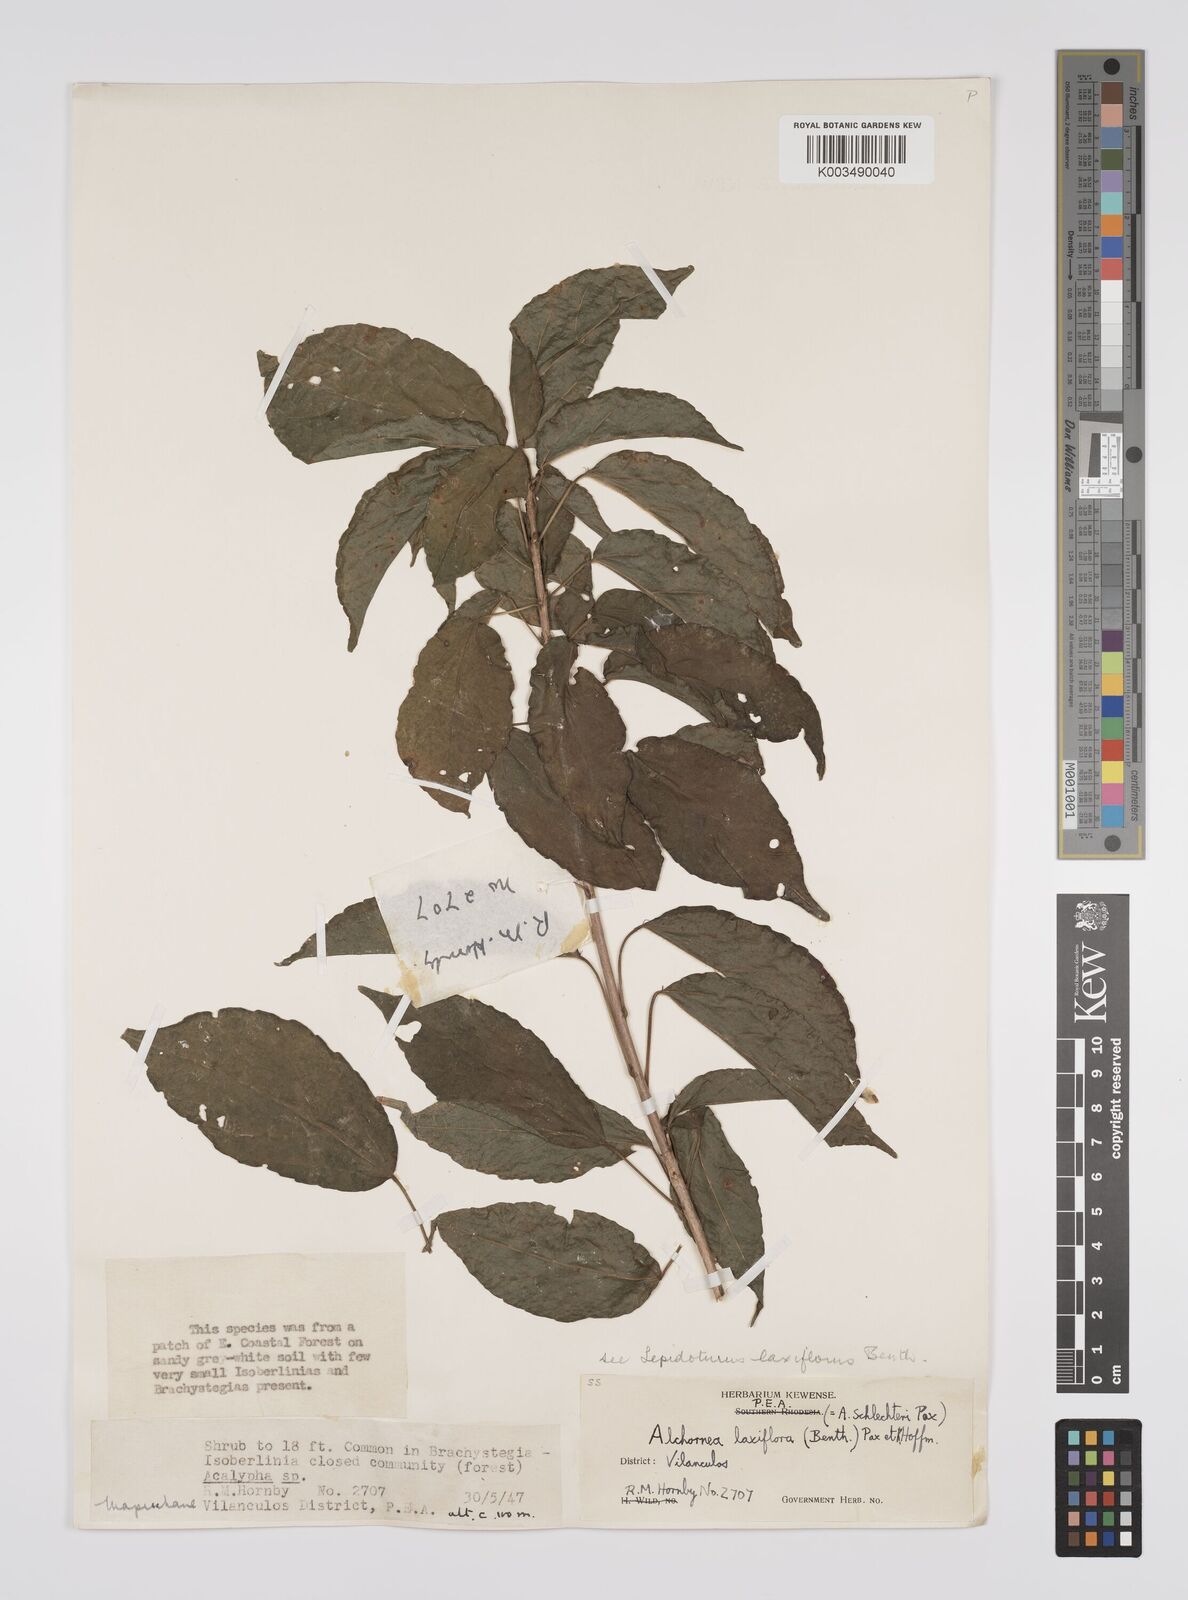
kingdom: Plantae
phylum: Tracheophyta
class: Magnoliopsida
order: Malpighiales
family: Euphorbiaceae
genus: Alchornea
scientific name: Alchornea laxiflora
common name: Lowveld bead-string
